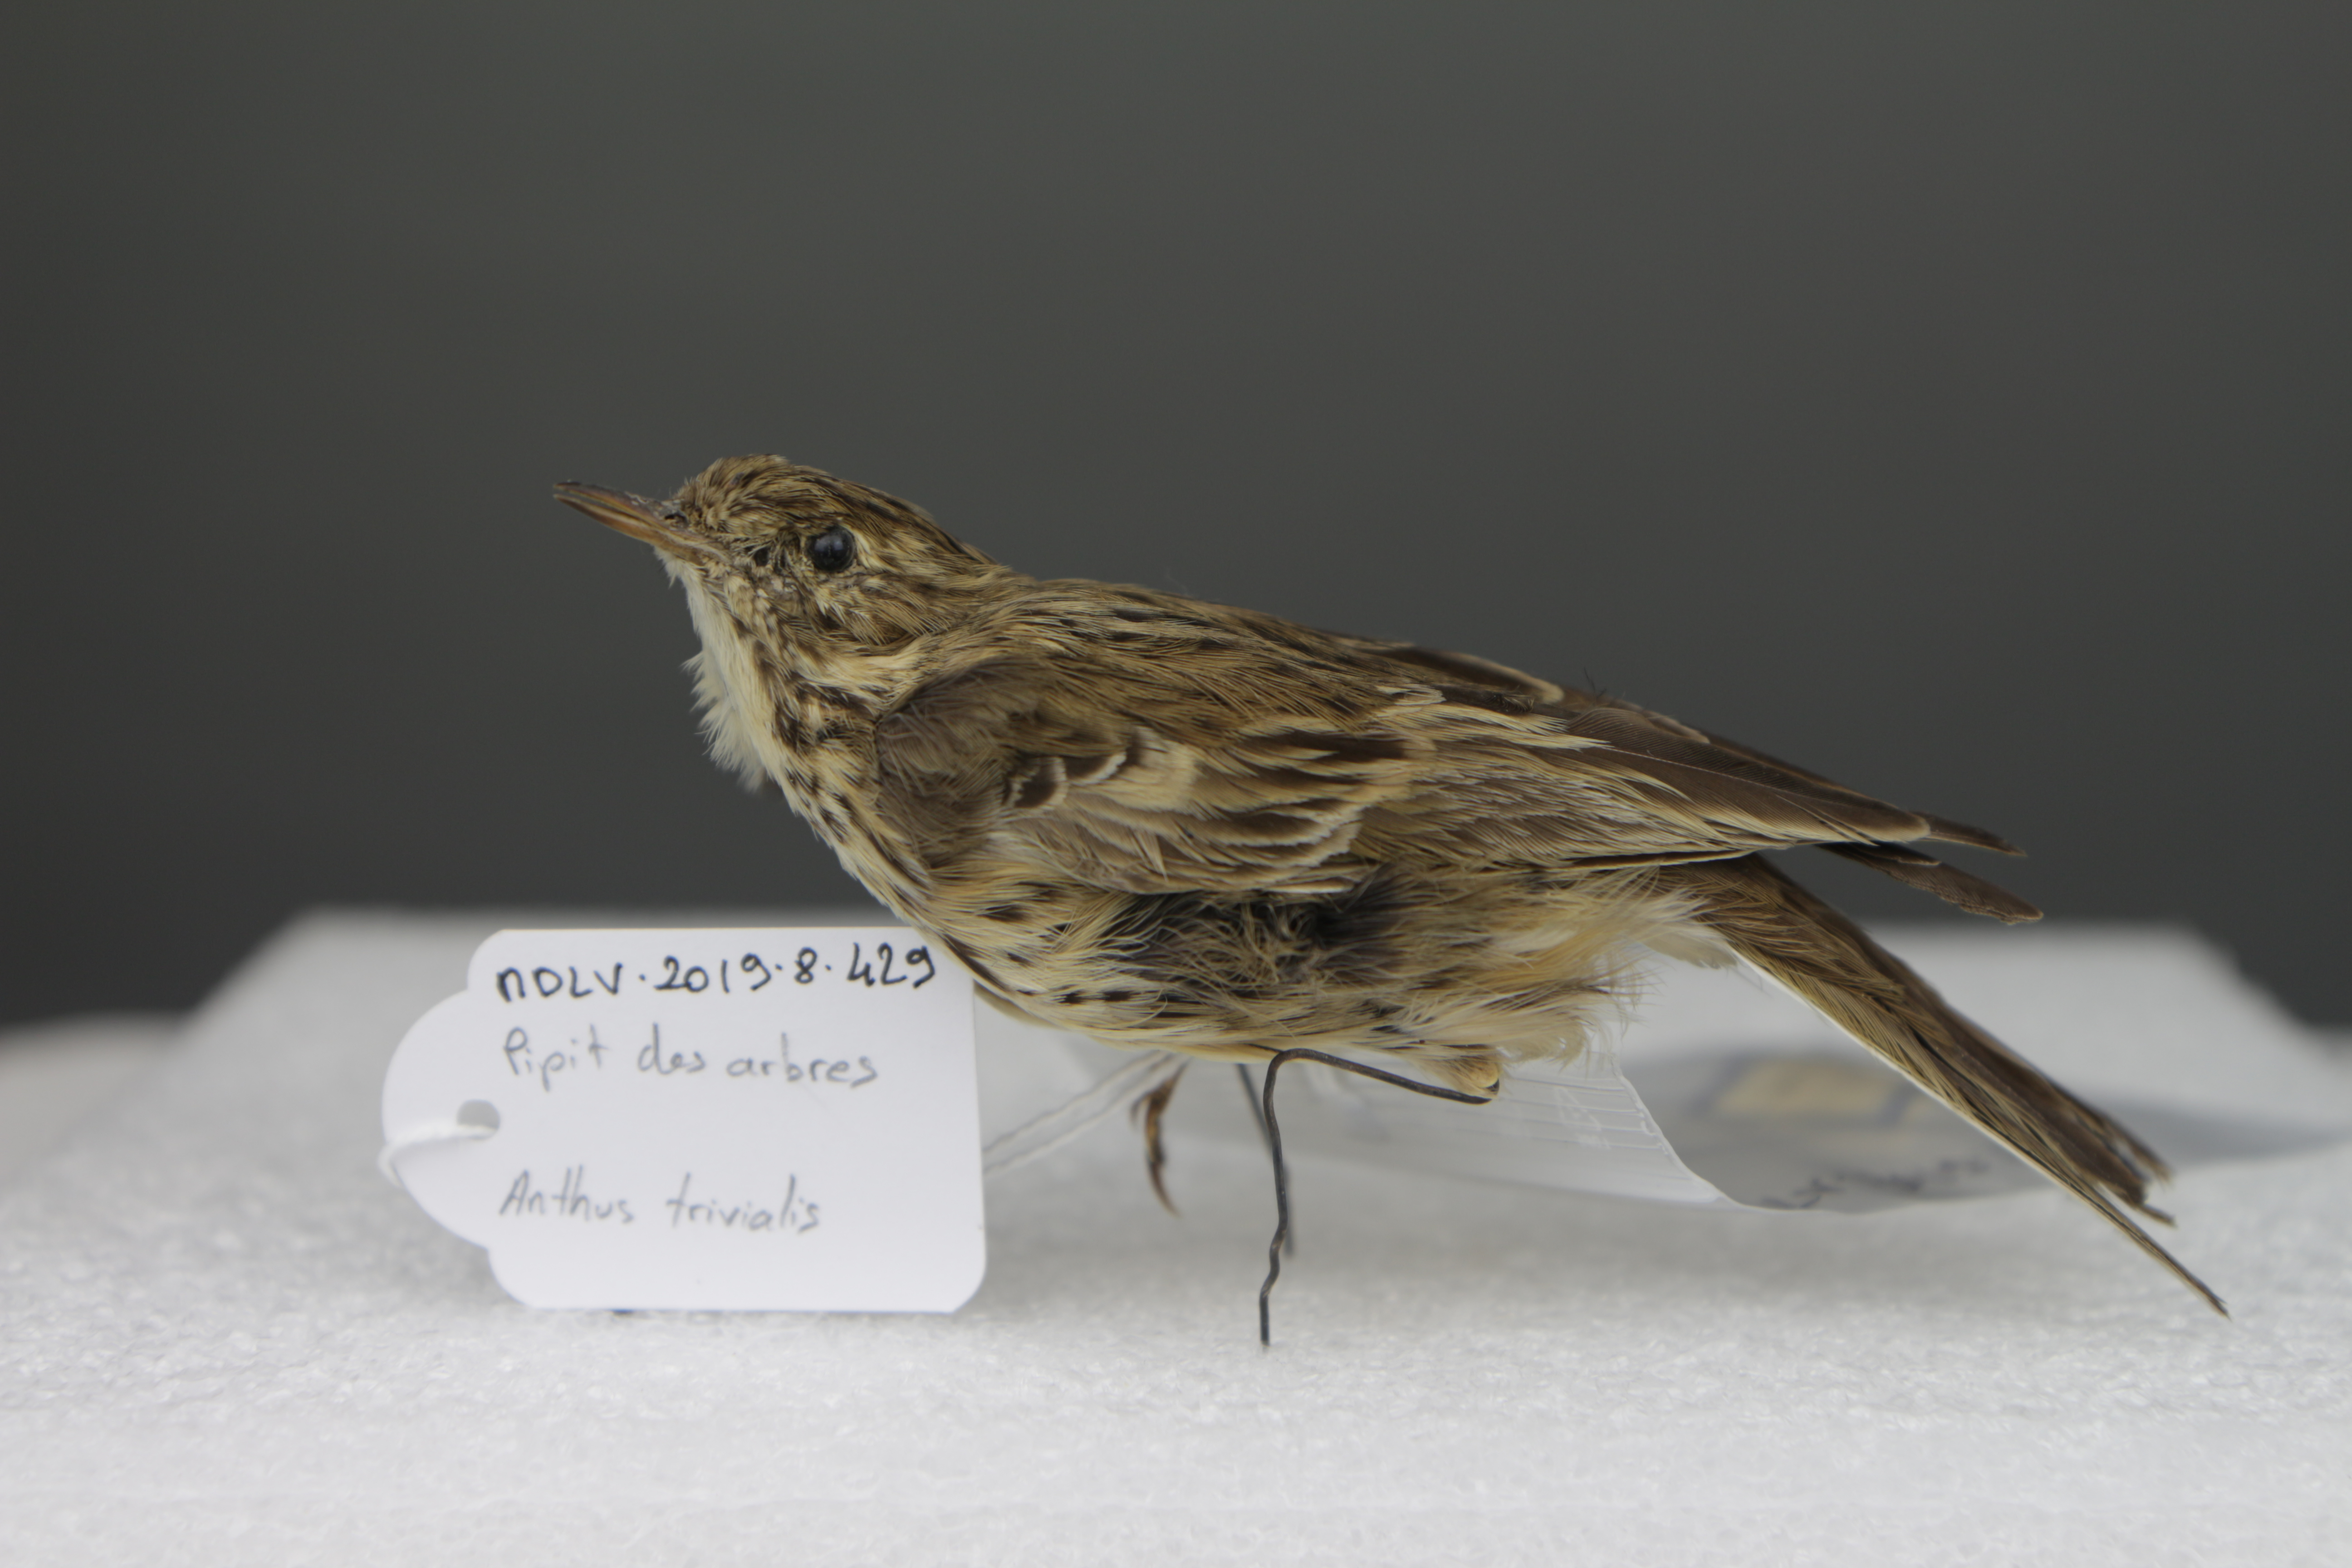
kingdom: Animalia
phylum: Chordata
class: Aves
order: Passeriformes
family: Motacillidae
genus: Anthus
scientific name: Anthus trivialis
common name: Tree pipit
